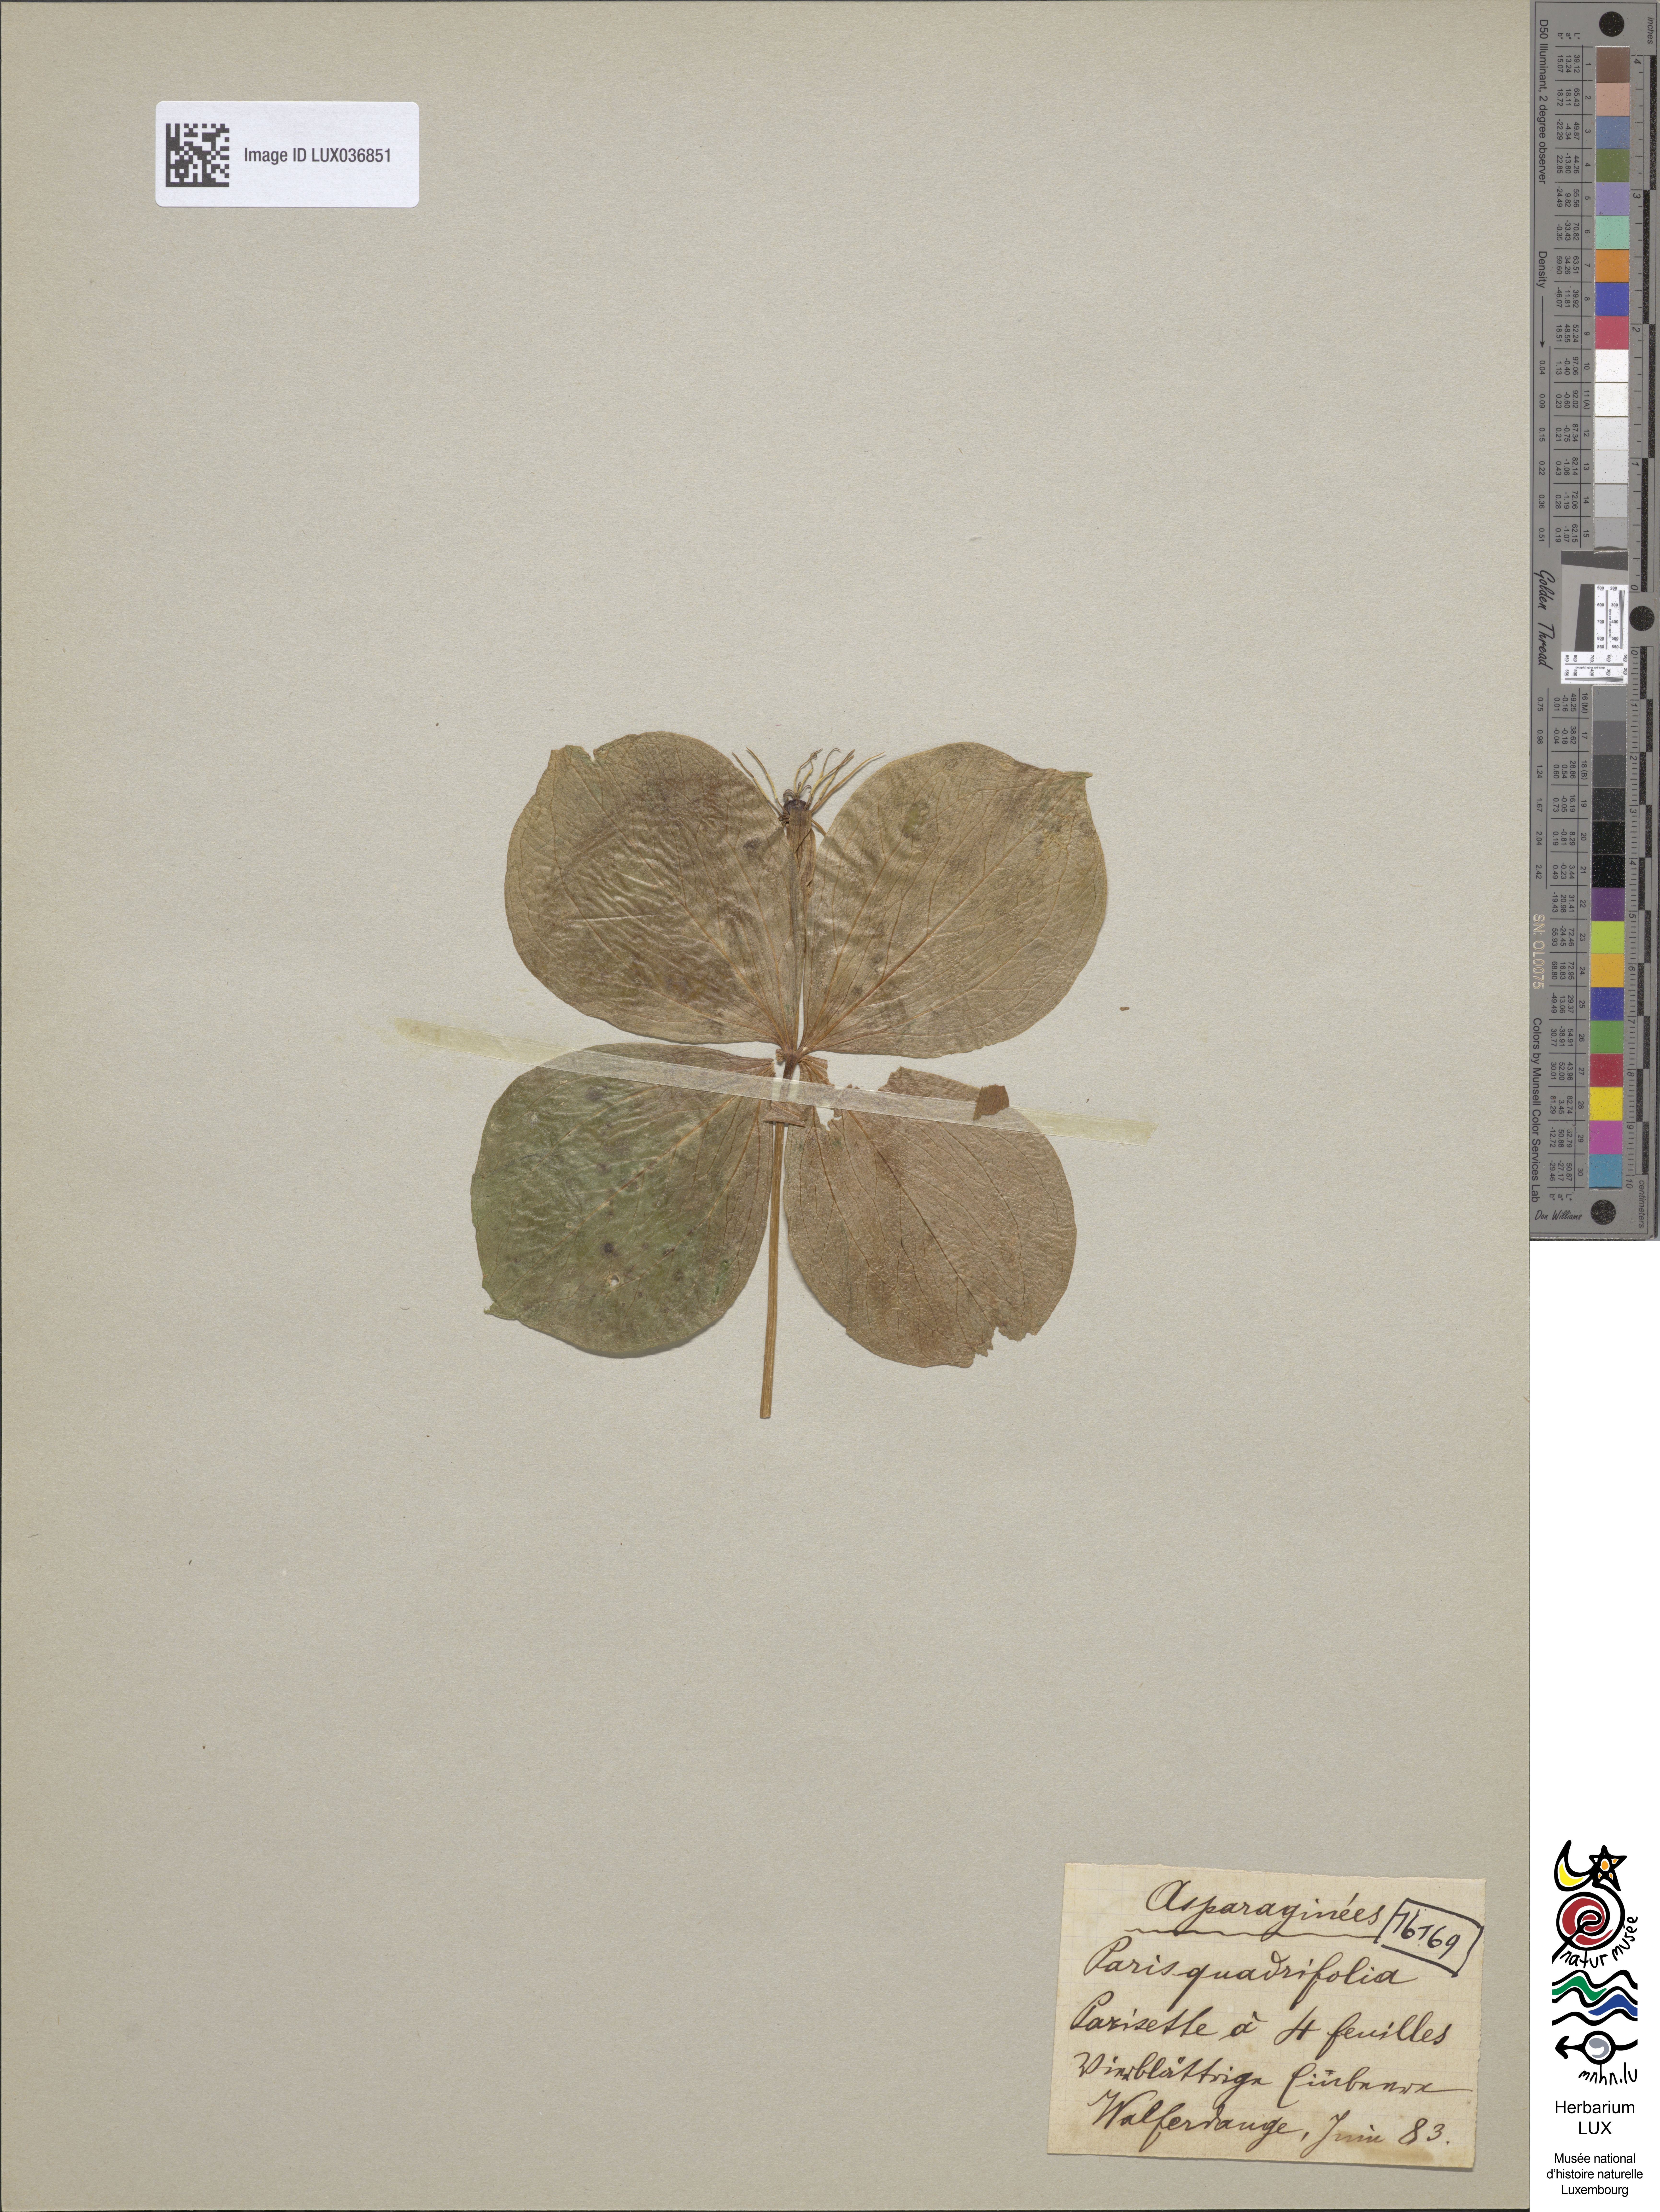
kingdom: Plantae
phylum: Tracheophyta
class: Liliopsida
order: Liliales
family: Melanthiaceae
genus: Paris
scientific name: Paris quadrifolia
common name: Herb-paris
